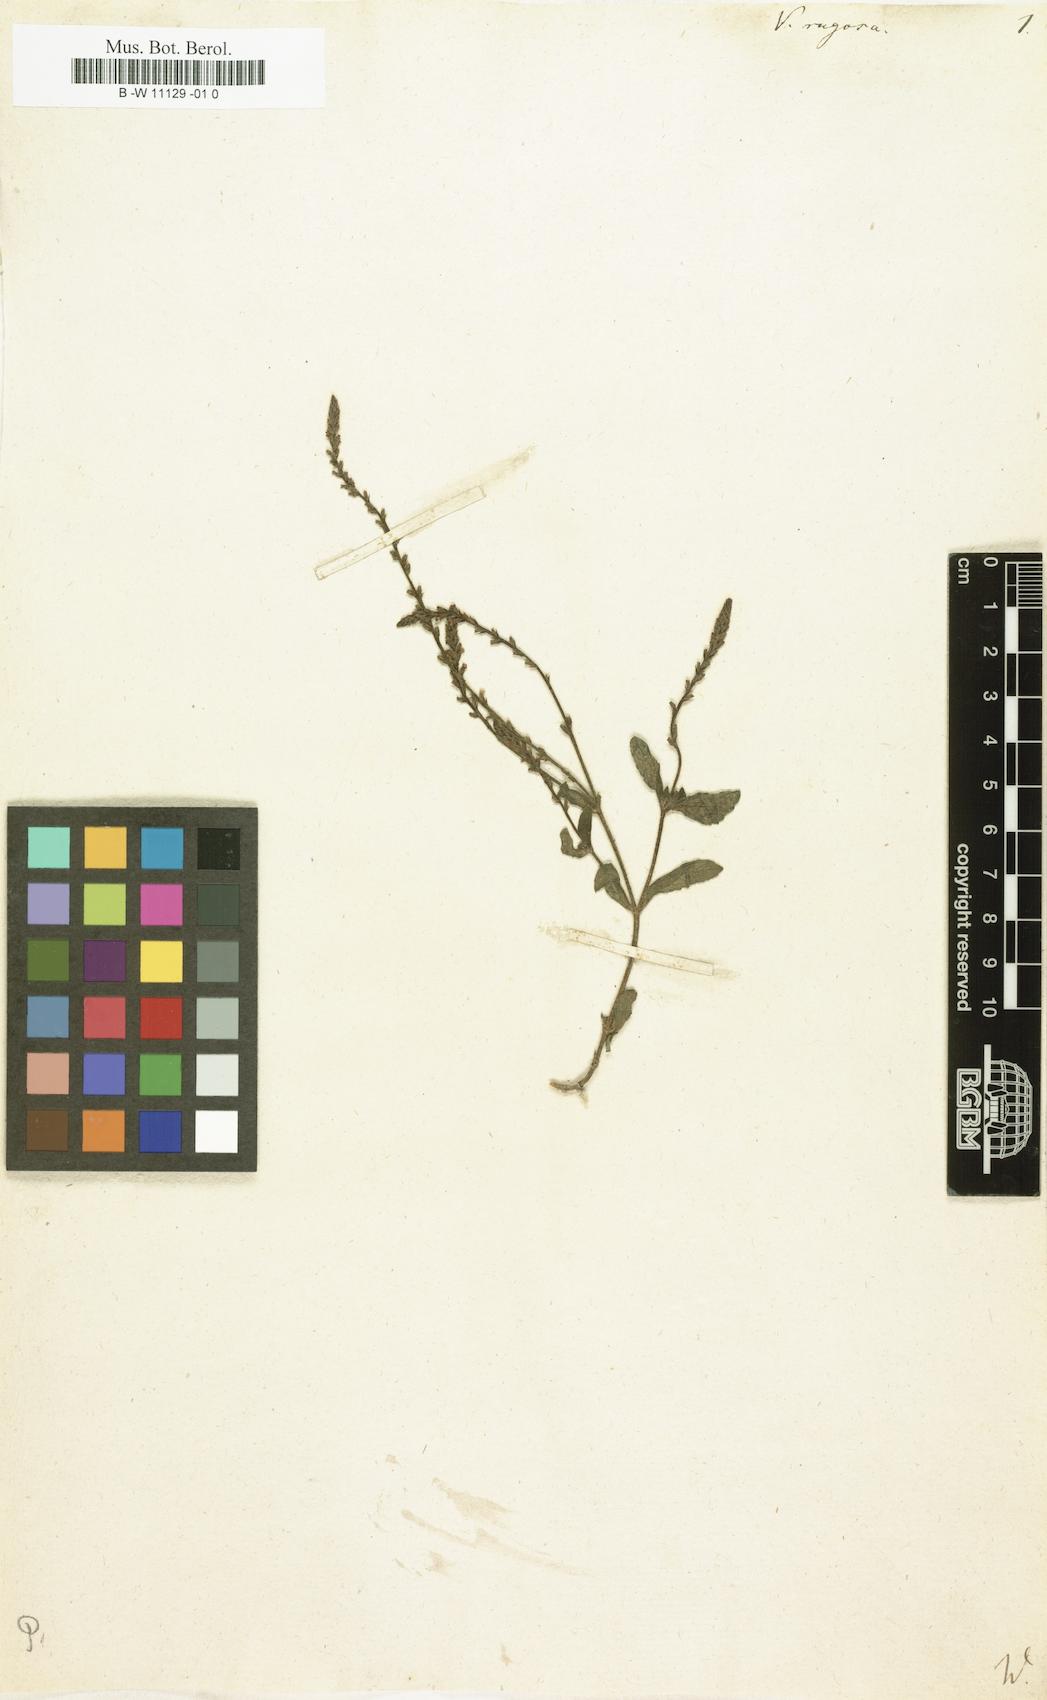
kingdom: Plantae
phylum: Tracheophyta
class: Magnoliopsida
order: Lamiales
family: Verbenaceae
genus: Verbena
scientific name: Verbena rugosa
